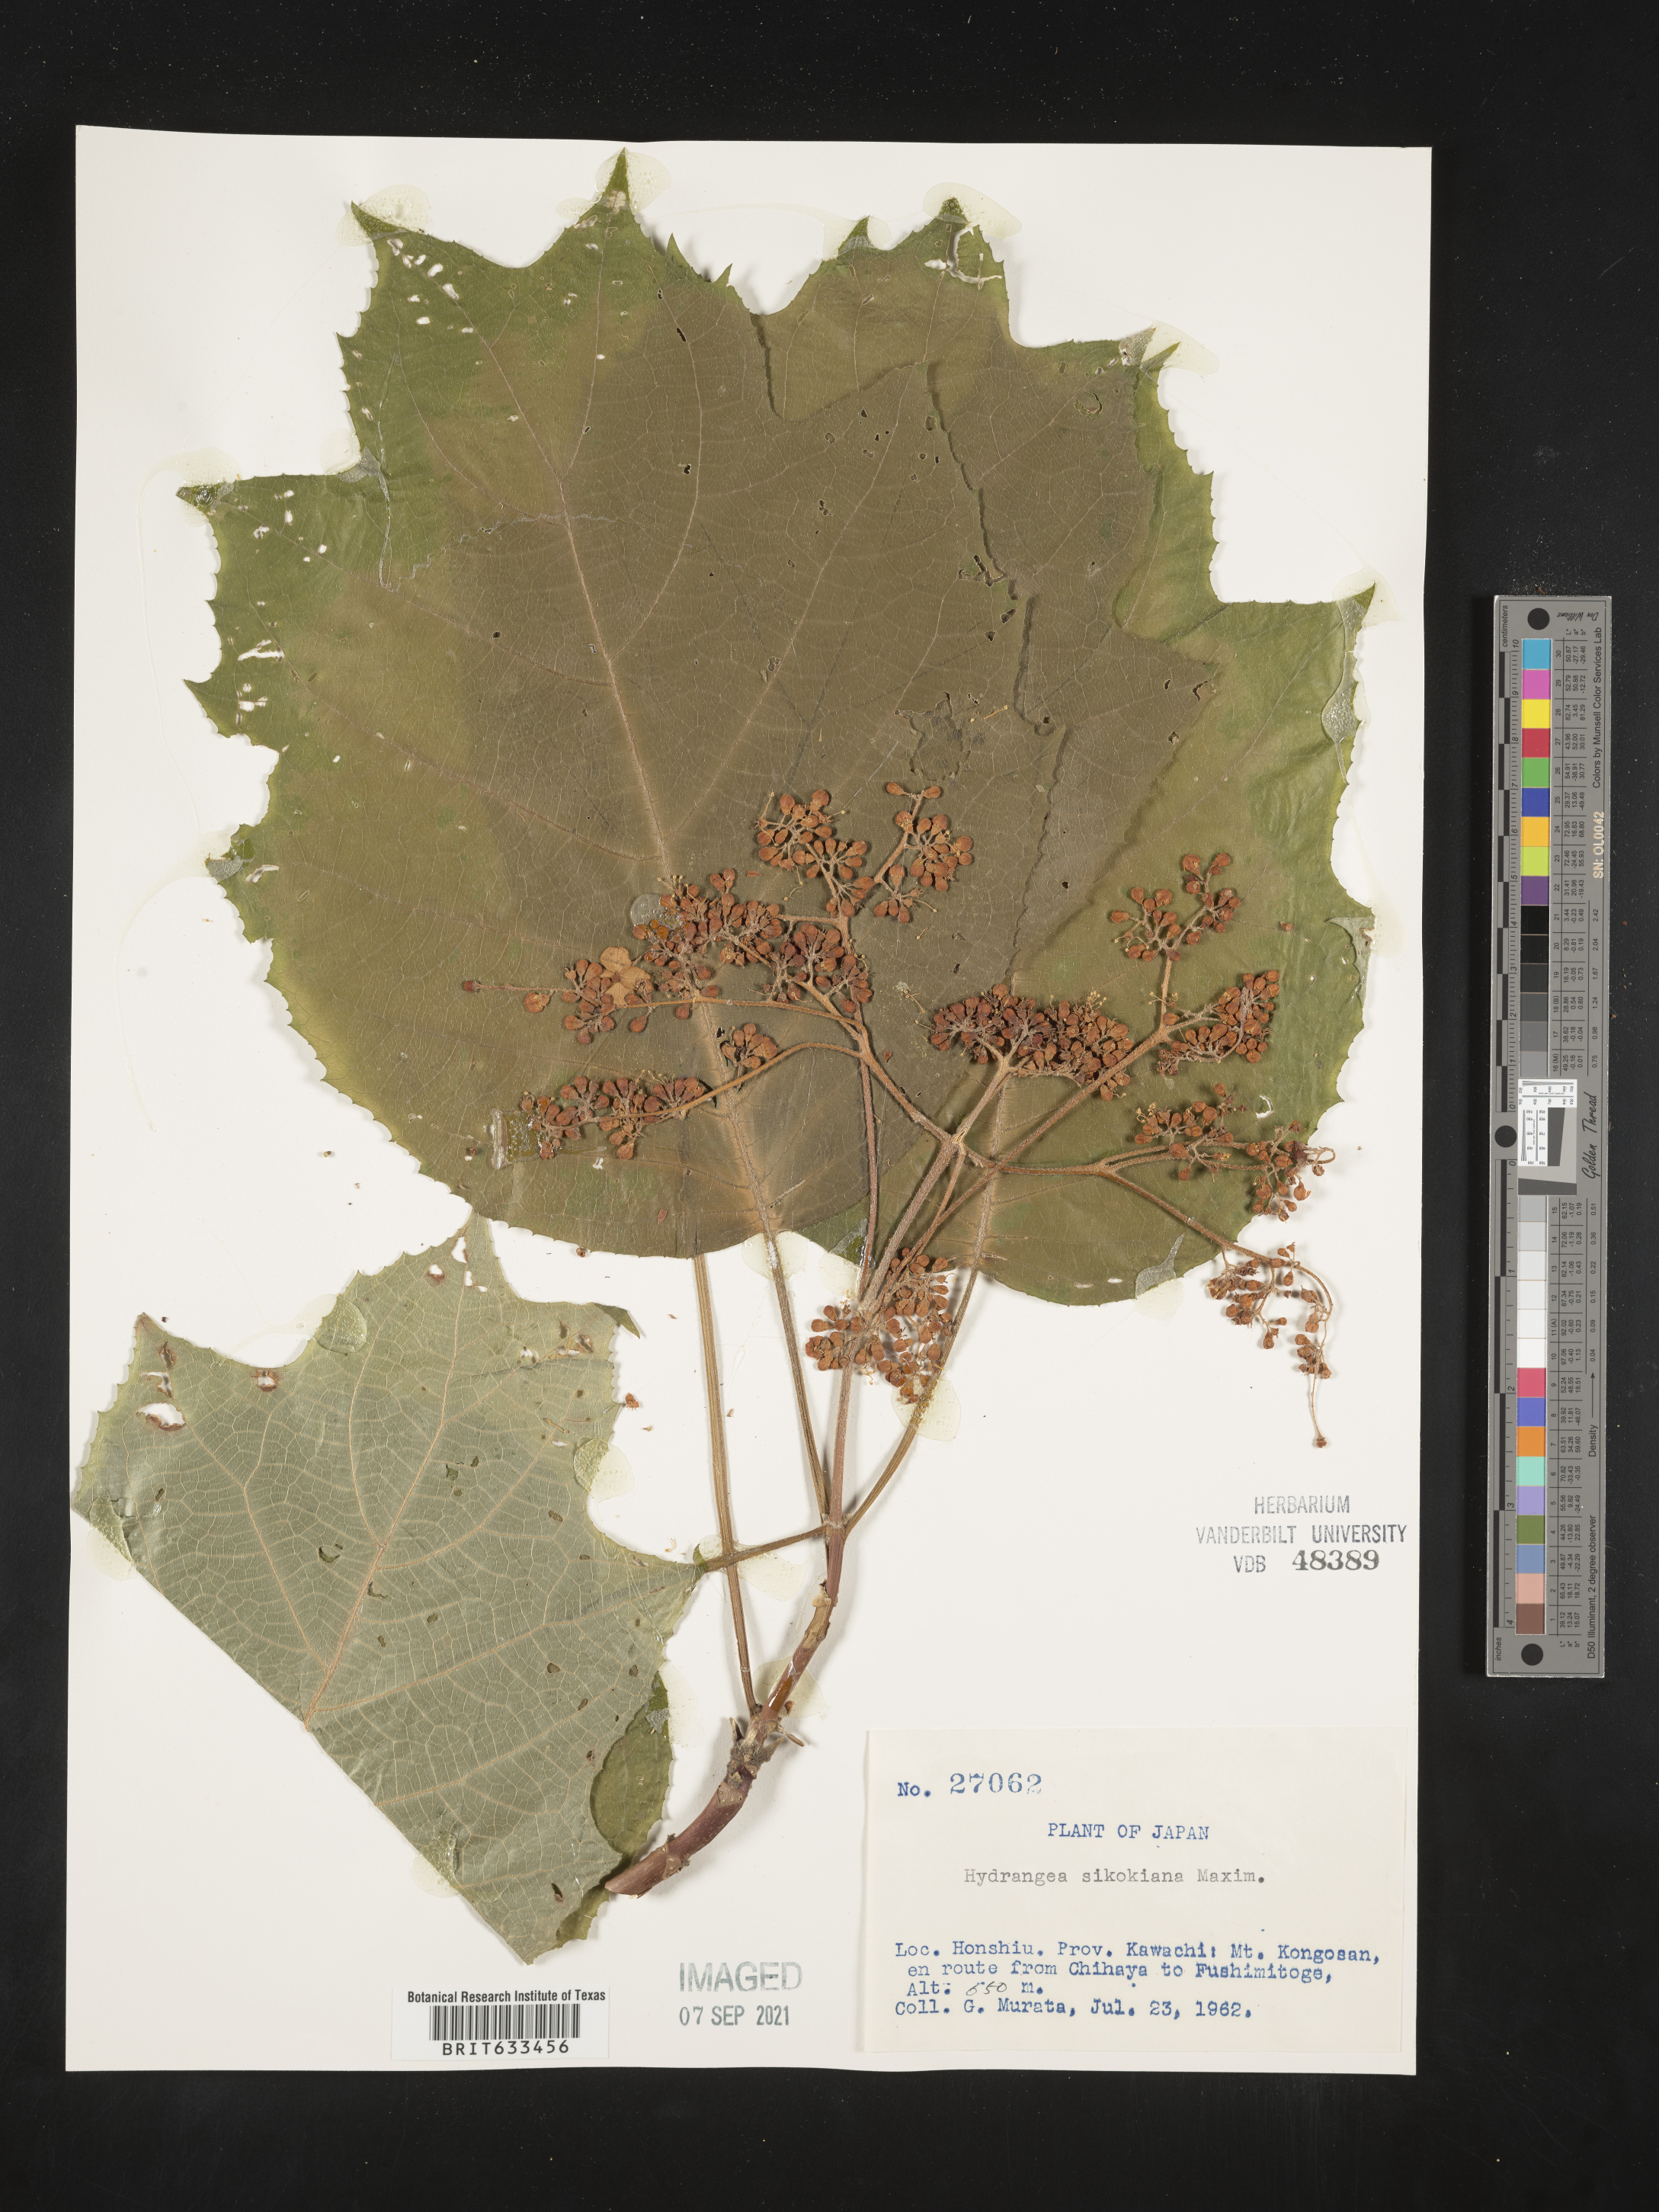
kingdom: Plantae
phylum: Tracheophyta
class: Magnoliopsida
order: Cornales
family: Hydrangeaceae
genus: Hydrangea
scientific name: Hydrangea
